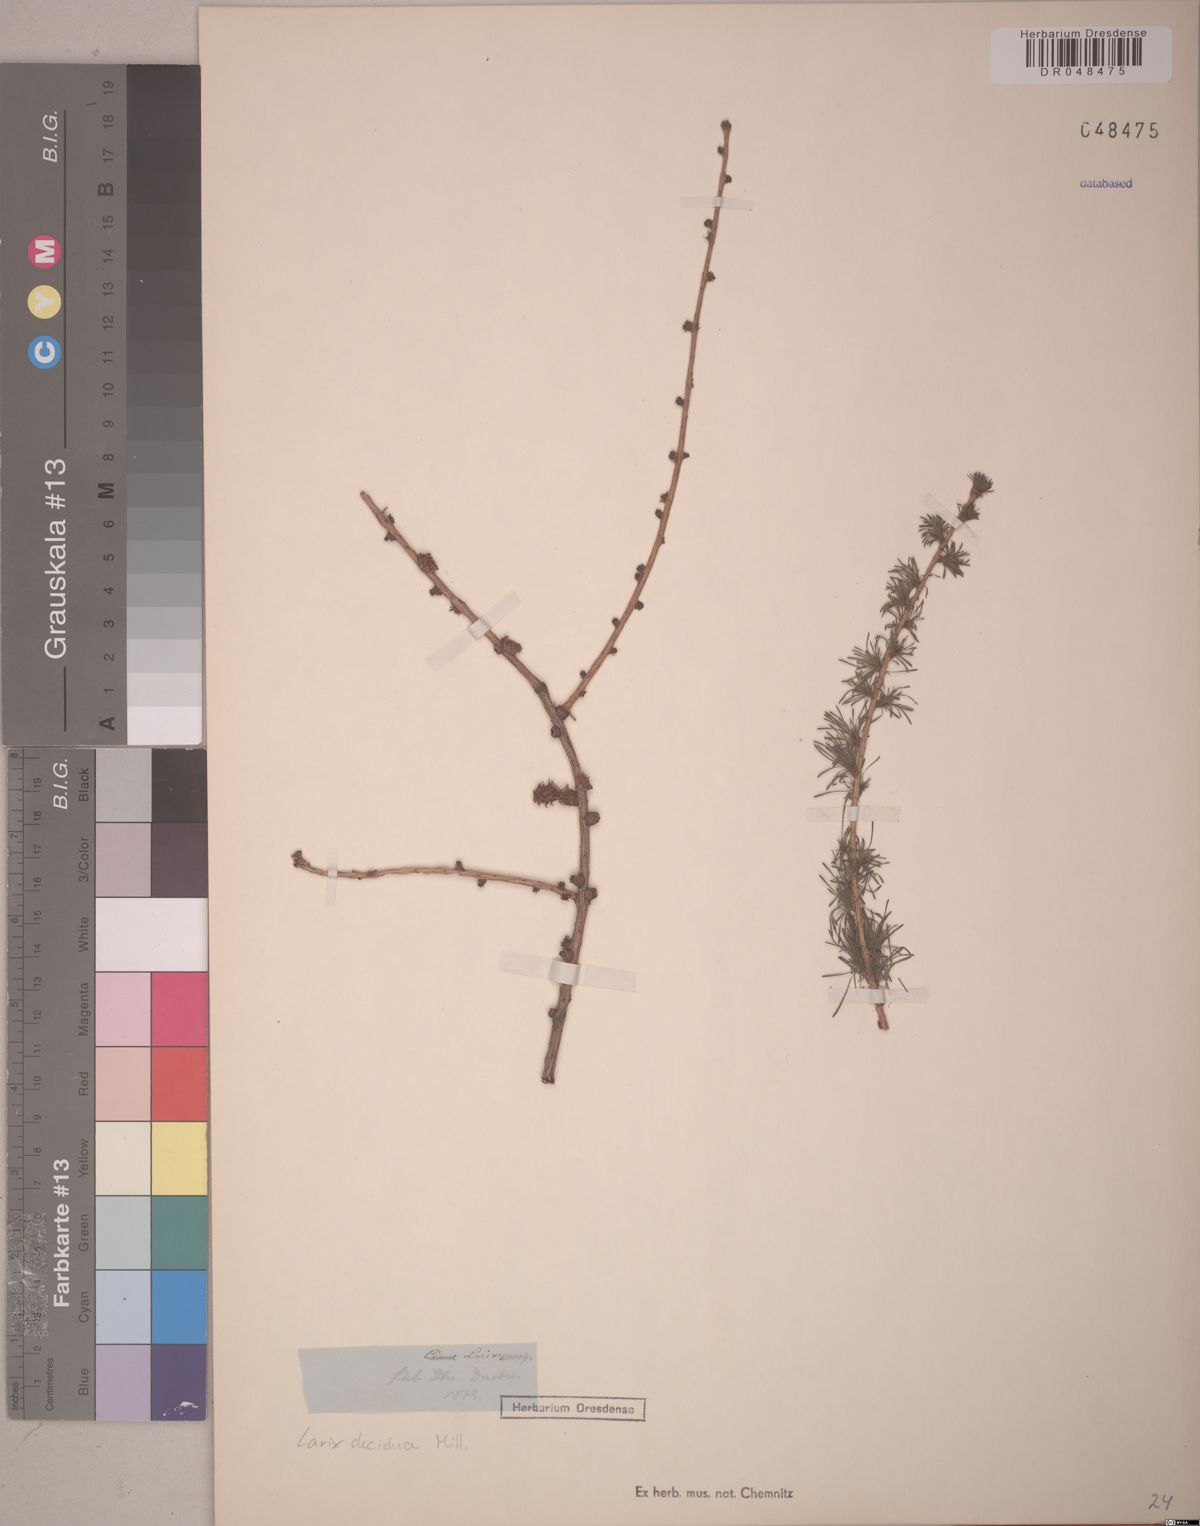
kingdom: Plantae
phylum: Tracheophyta
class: Pinopsida
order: Pinales
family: Pinaceae
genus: Larix
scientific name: Larix decidua
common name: European larch
